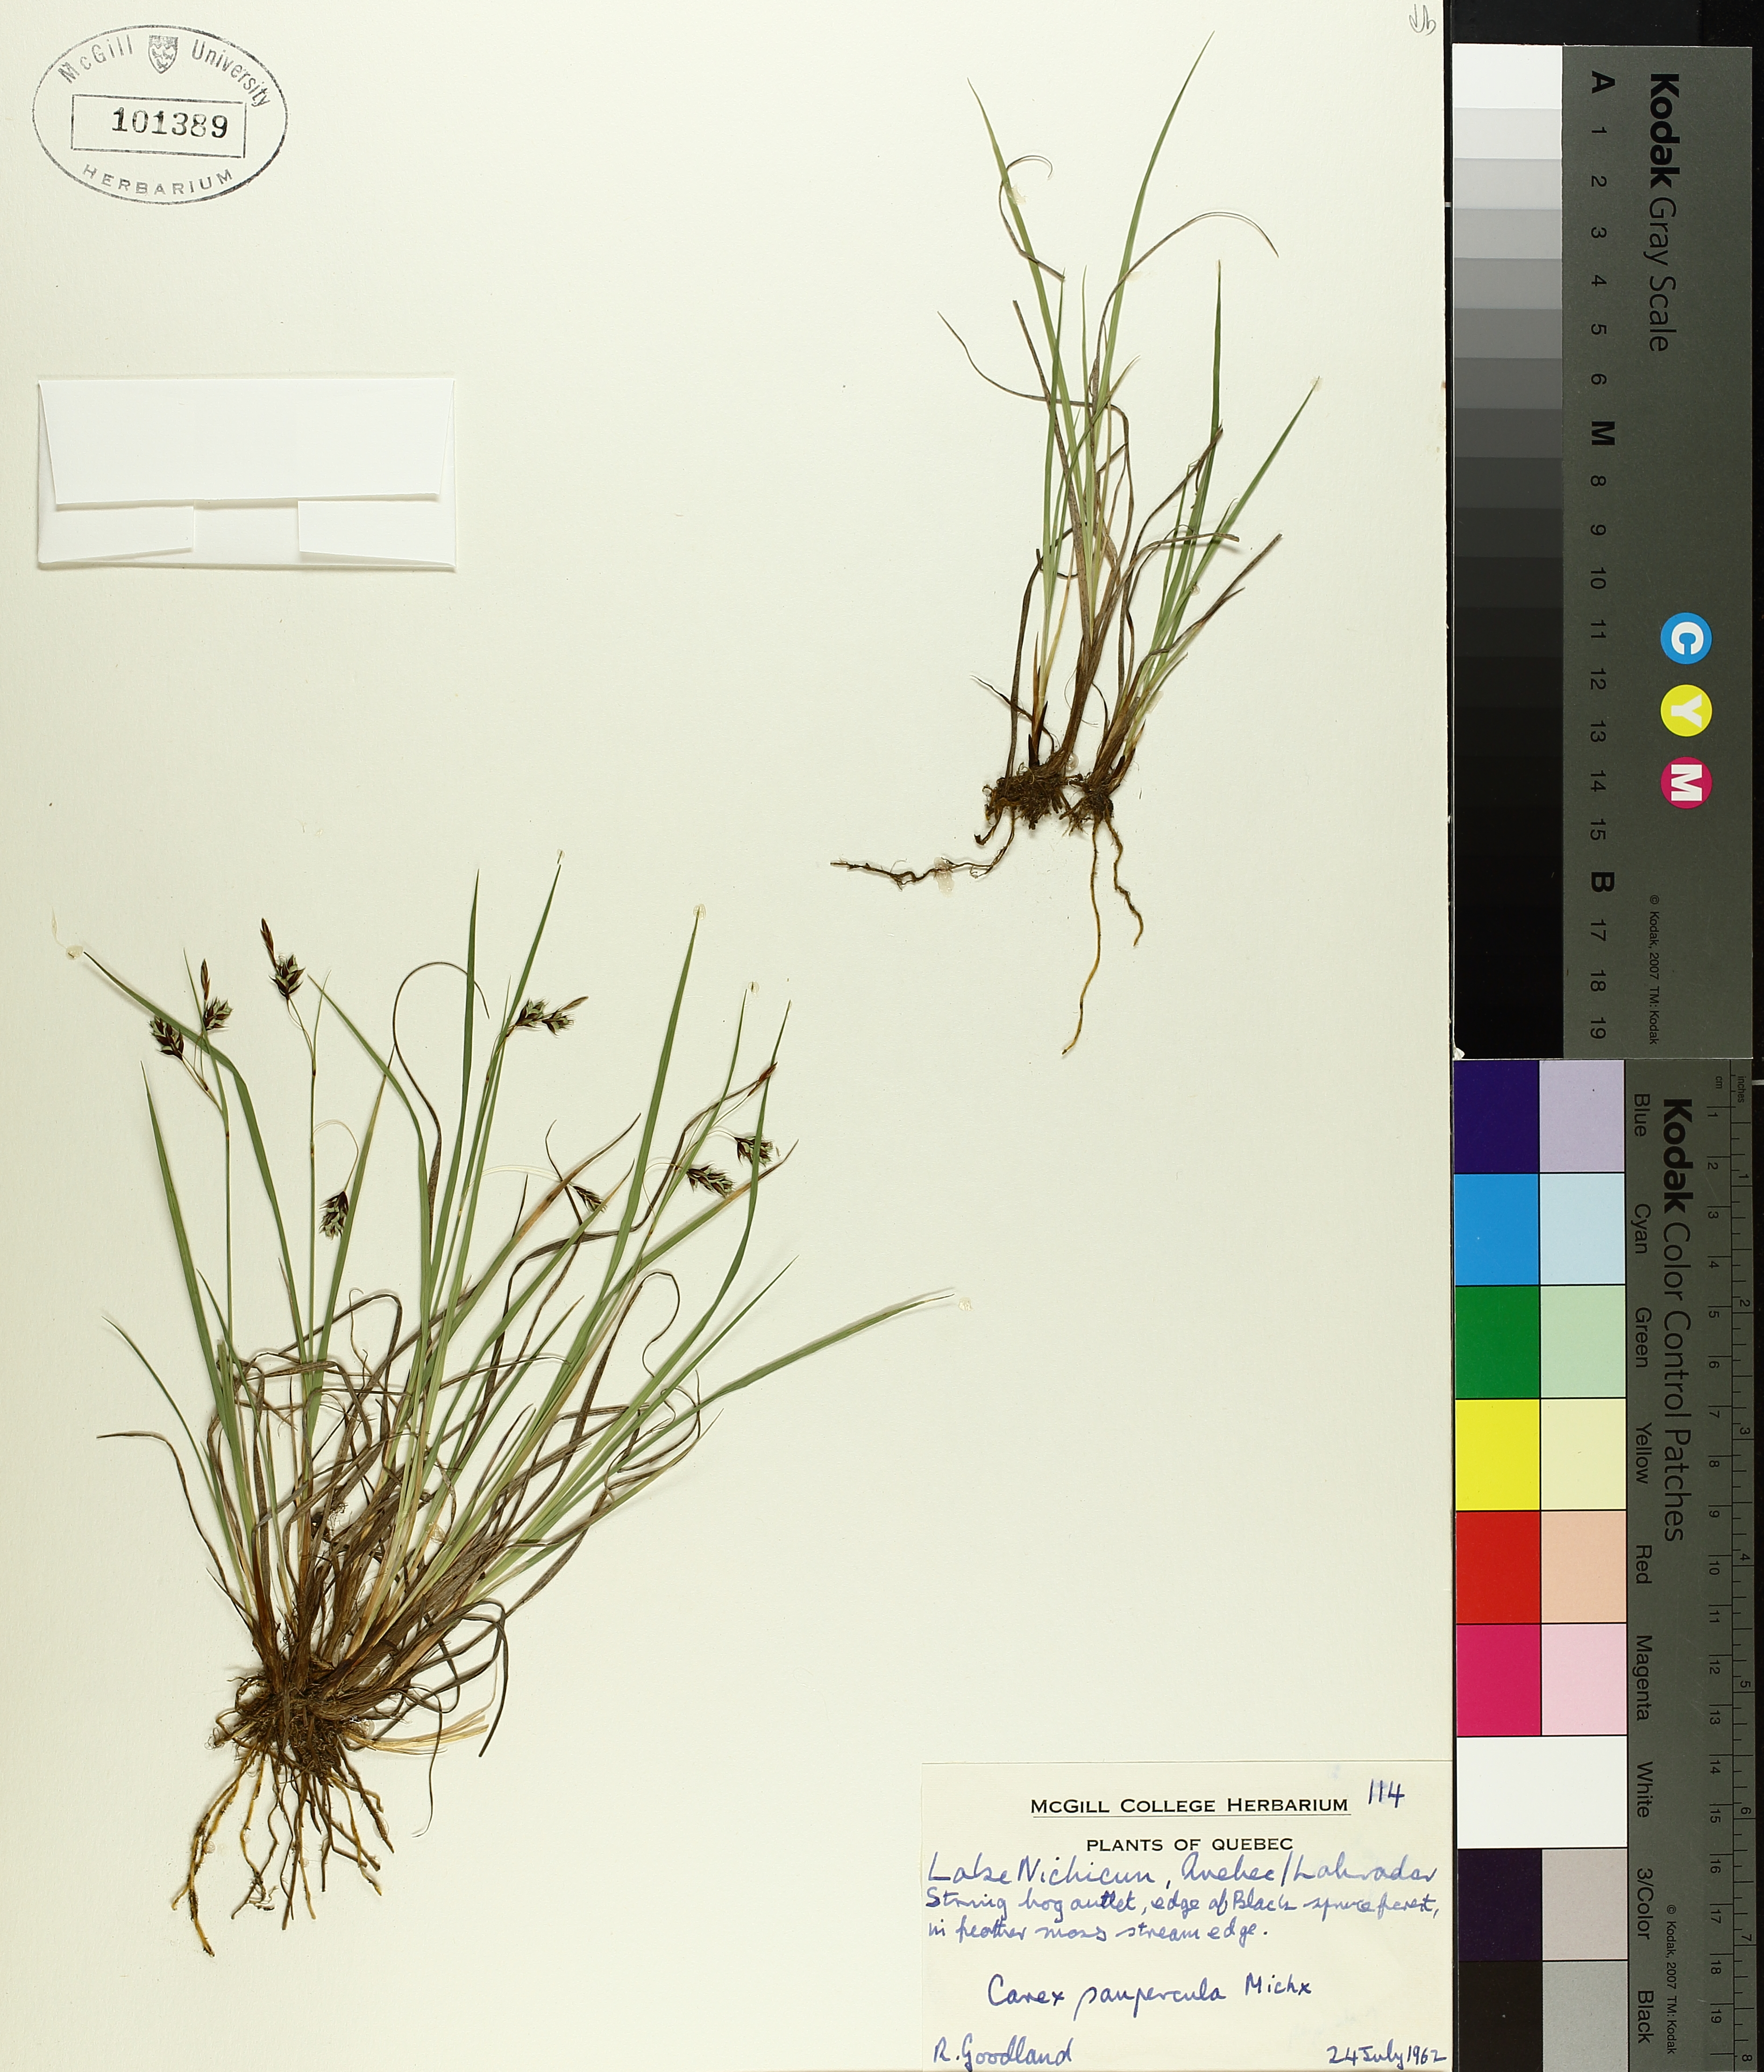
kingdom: Plantae
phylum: Tracheophyta
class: Liliopsida
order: Poales
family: Cyperaceae
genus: Carex
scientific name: Carex magellanica
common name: Bog sedge
